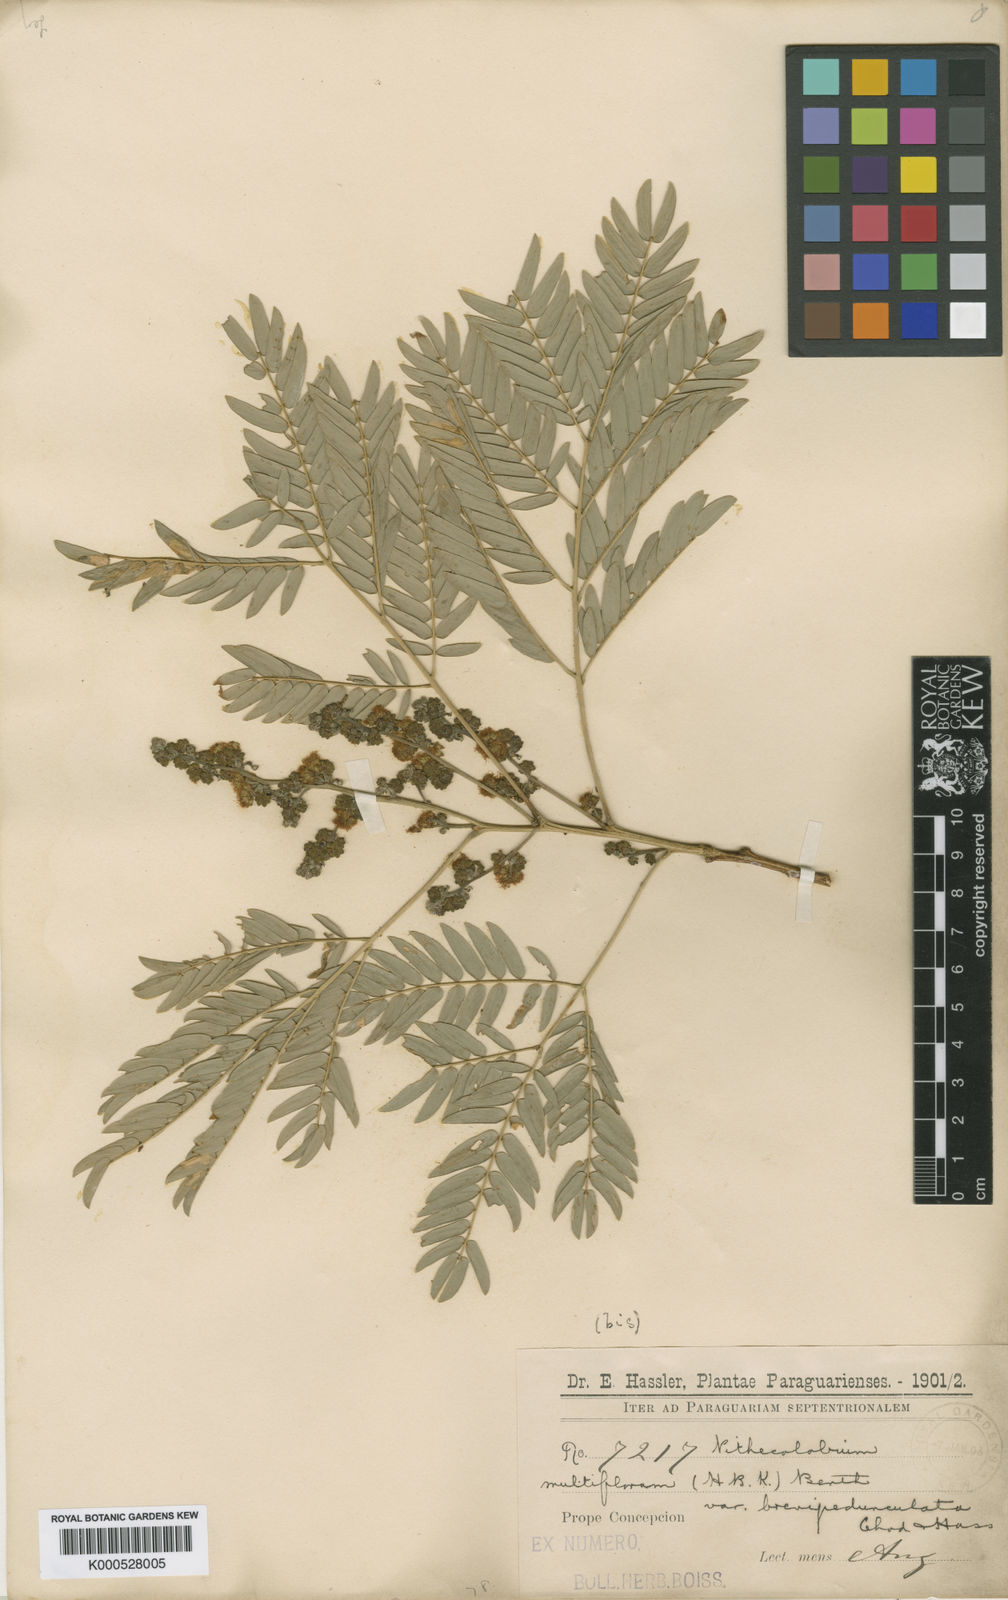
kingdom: Plantae
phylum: Tracheophyta
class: Magnoliopsida
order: Fabales
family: Fabaceae
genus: Albizia
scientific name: Albizia multiflora
